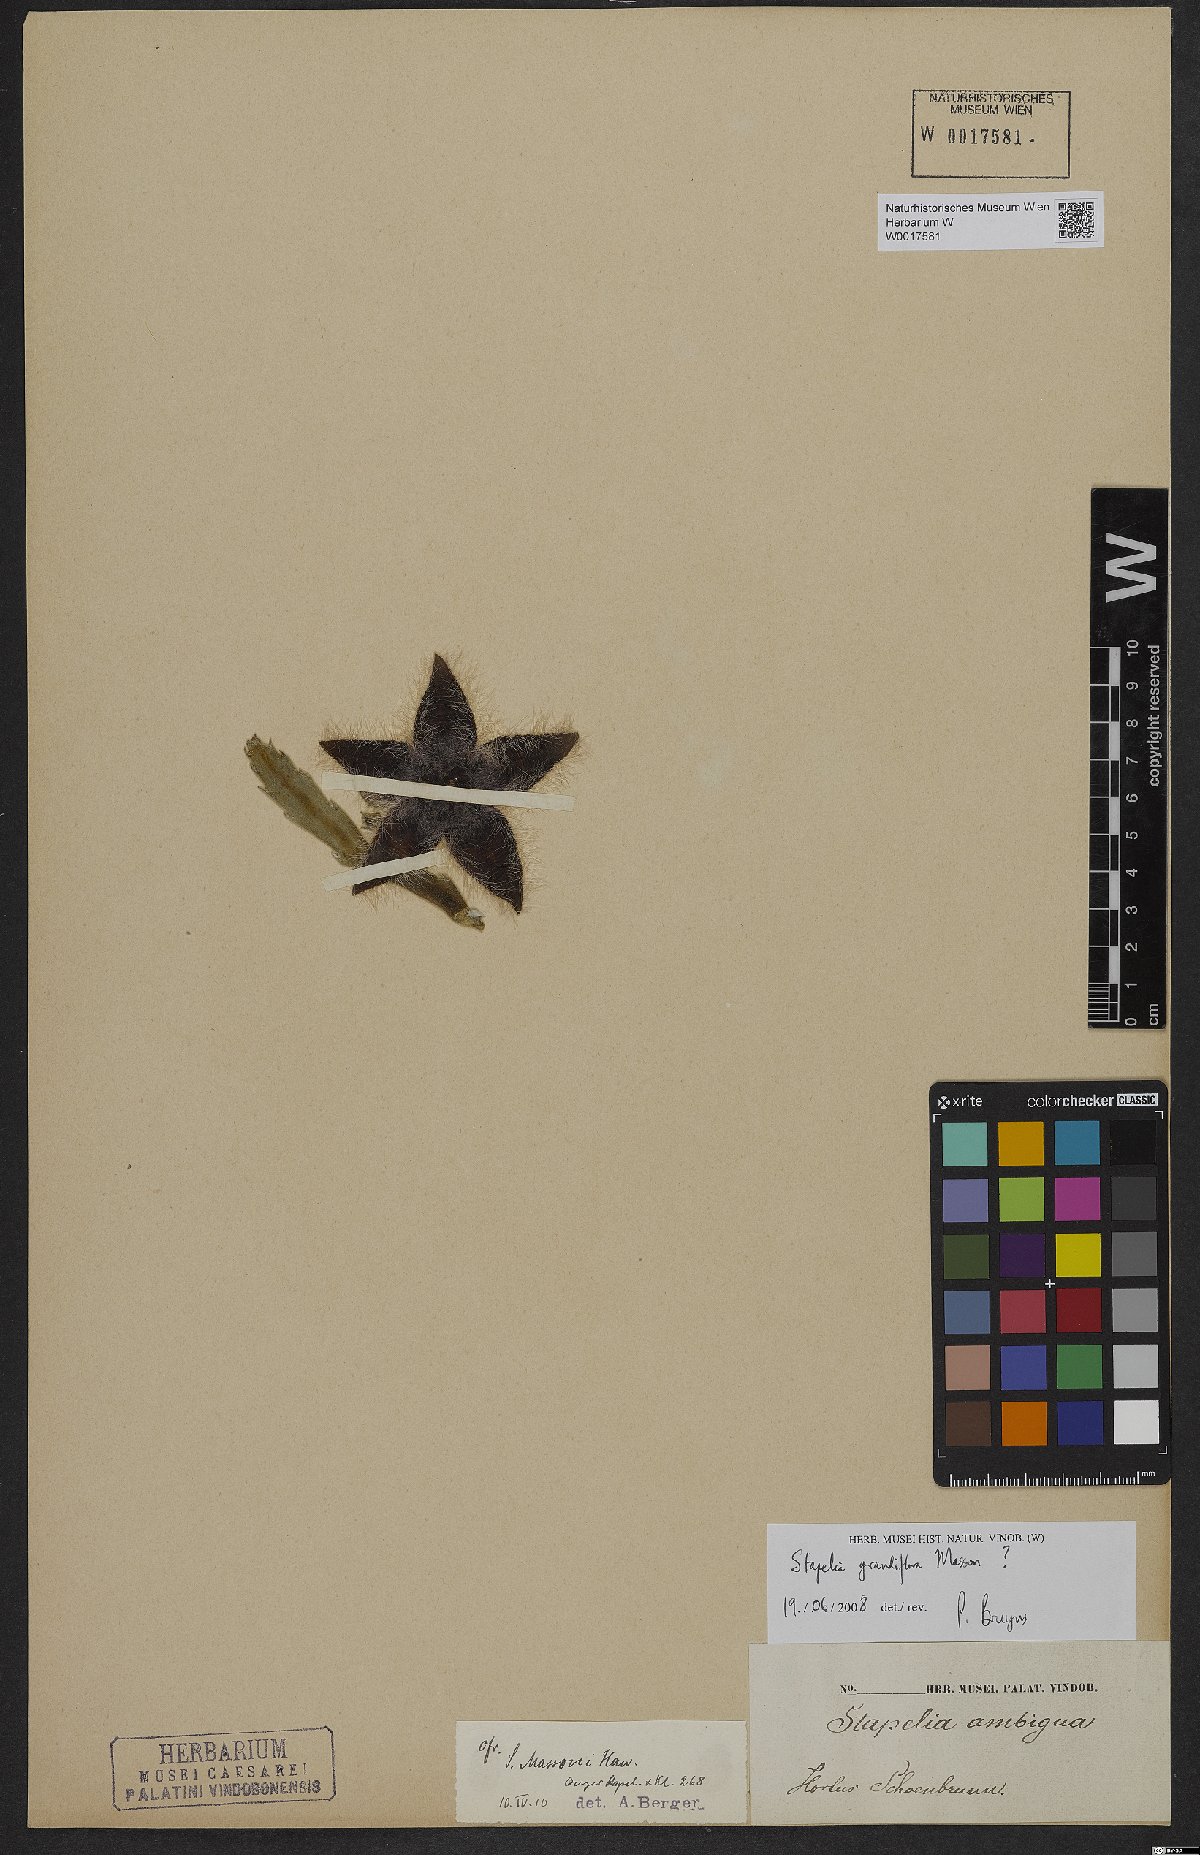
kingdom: Plantae
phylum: Tracheophyta
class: Magnoliopsida
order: Gentianales
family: Apocynaceae
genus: Ceropegia
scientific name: Ceropegia grandiflora
